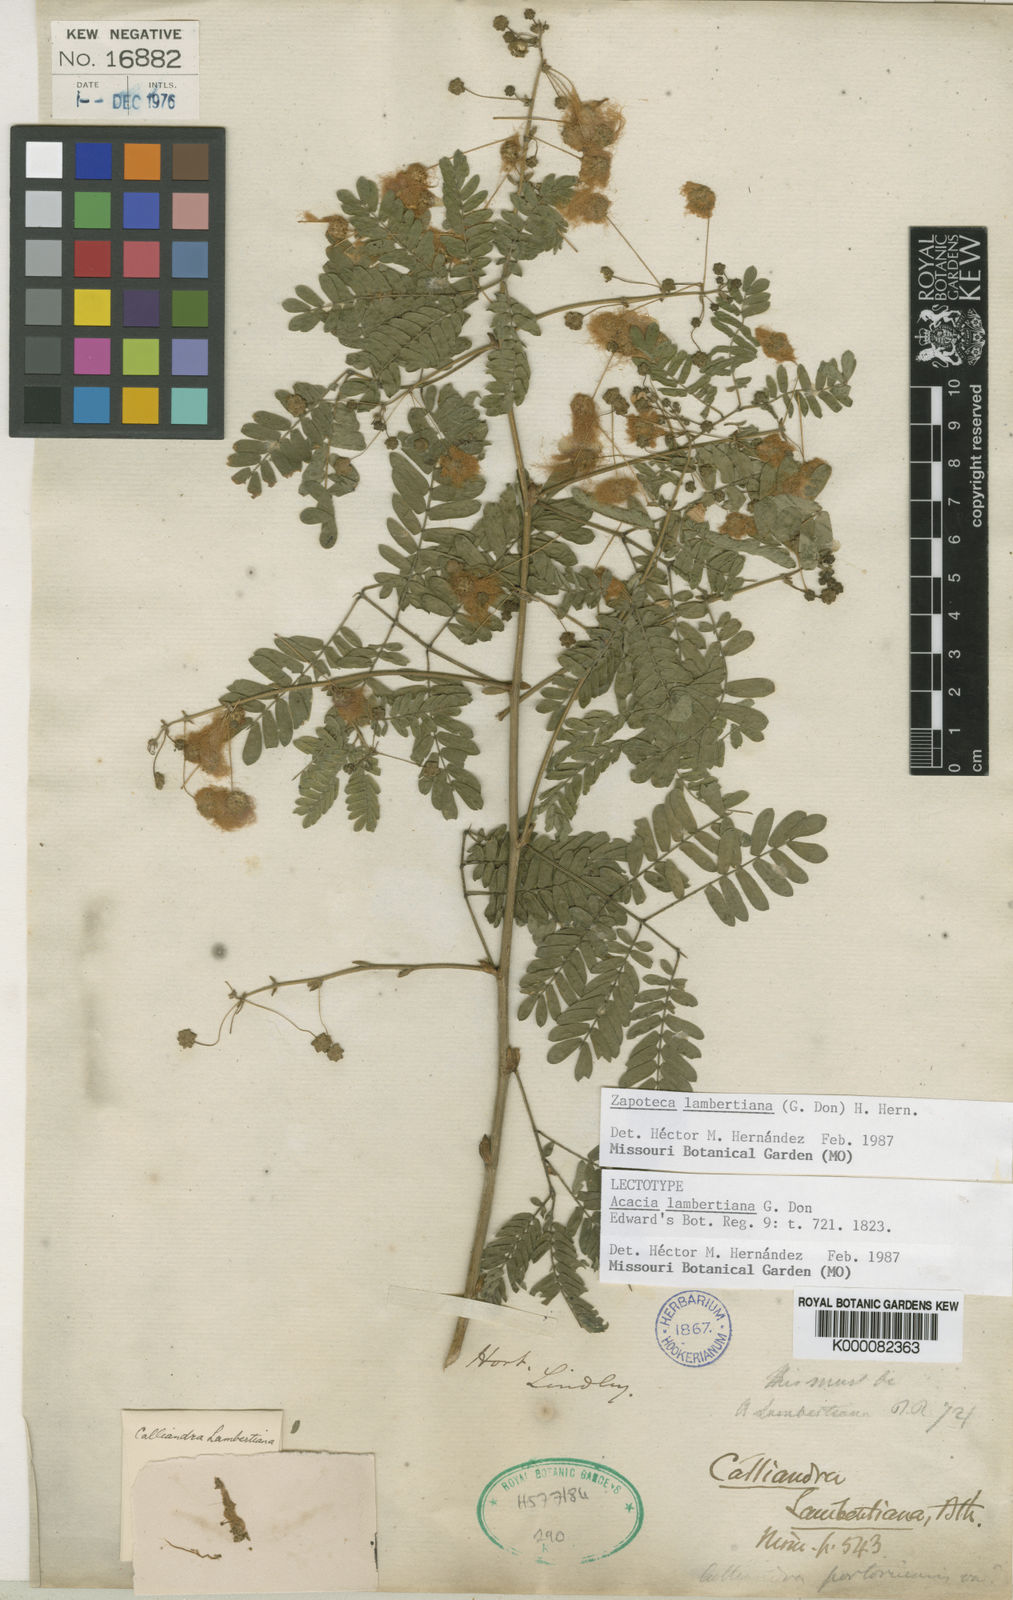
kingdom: Plantae
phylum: Tracheophyta
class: Magnoliopsida
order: Fabales
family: Fabaceae
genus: Zapoteca
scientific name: Zapoteca lambertiana
